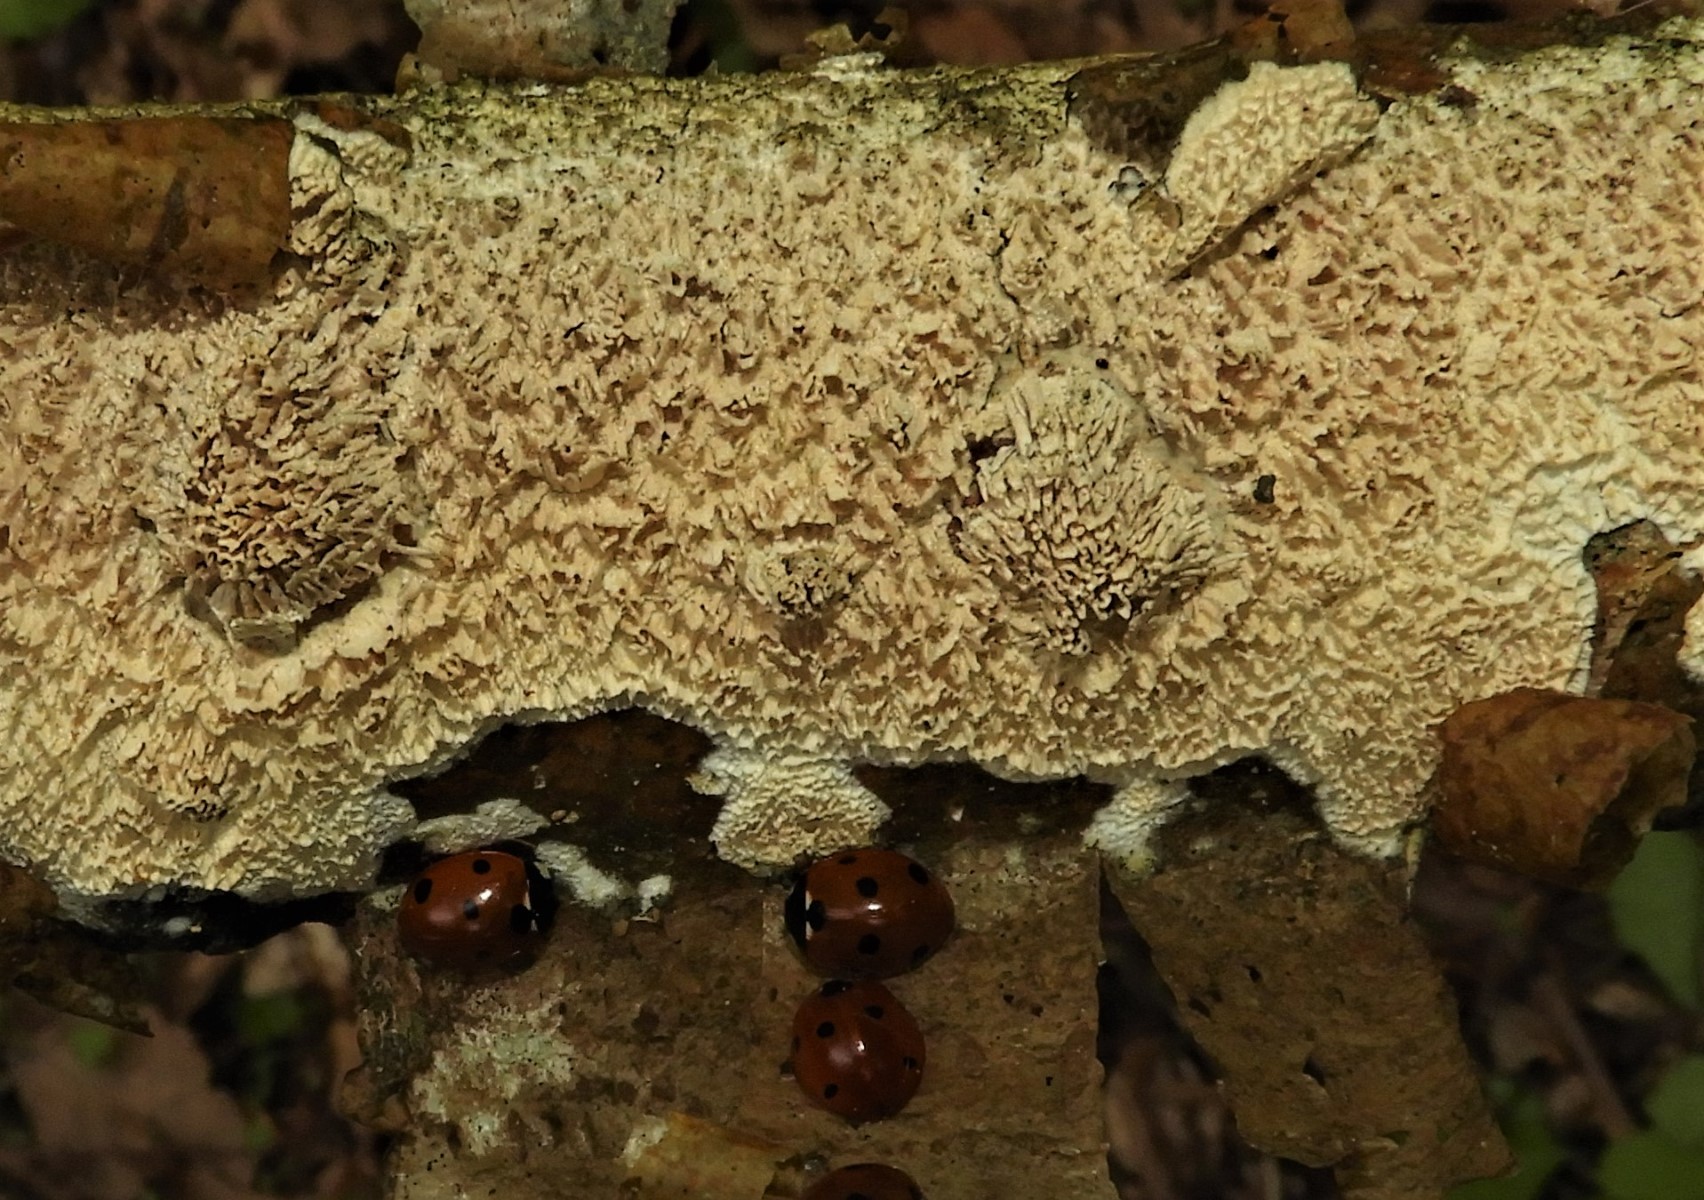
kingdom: Fungi
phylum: Basidiomycota
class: Agaricomycetes
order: Corticiales
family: Corticiaceae
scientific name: Corticiaceae
